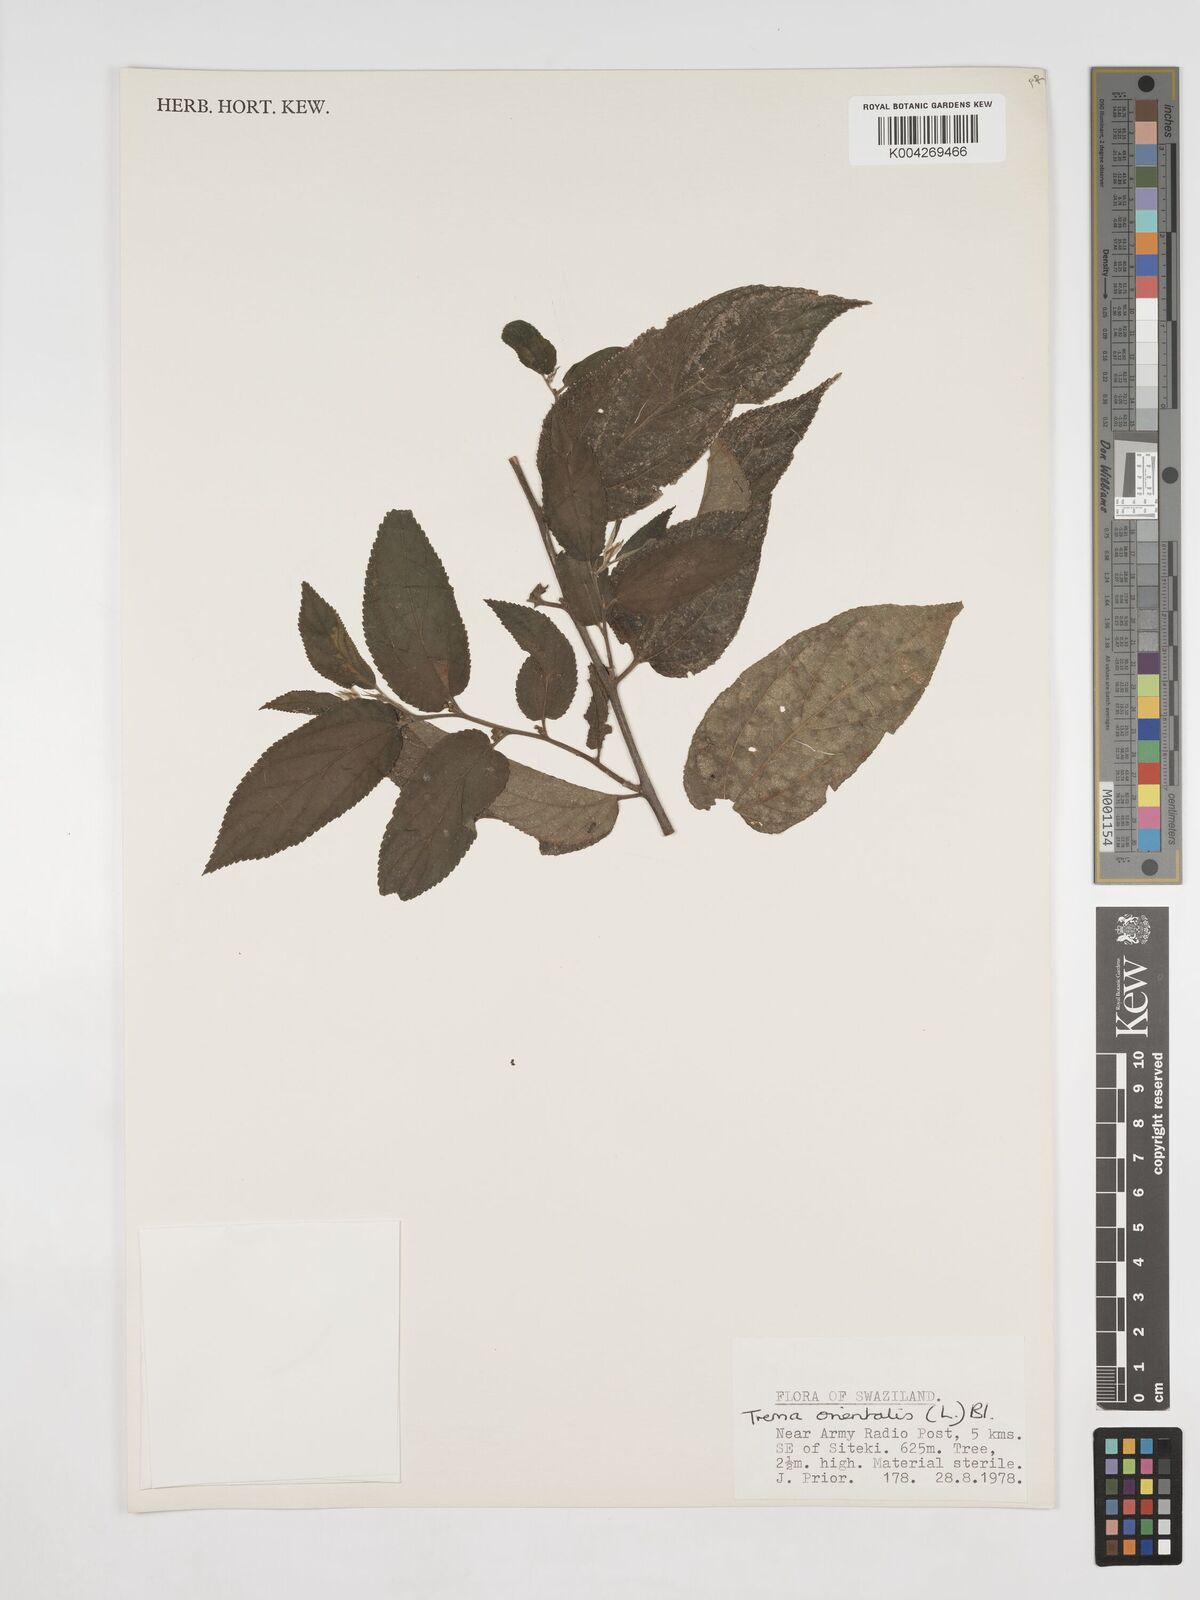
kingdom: Plantae
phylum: Tracheophyta
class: Magnoliopsida
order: Rosales
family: Cannabaceae
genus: Trema
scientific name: Trema orientale
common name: Indian charcoal tree
